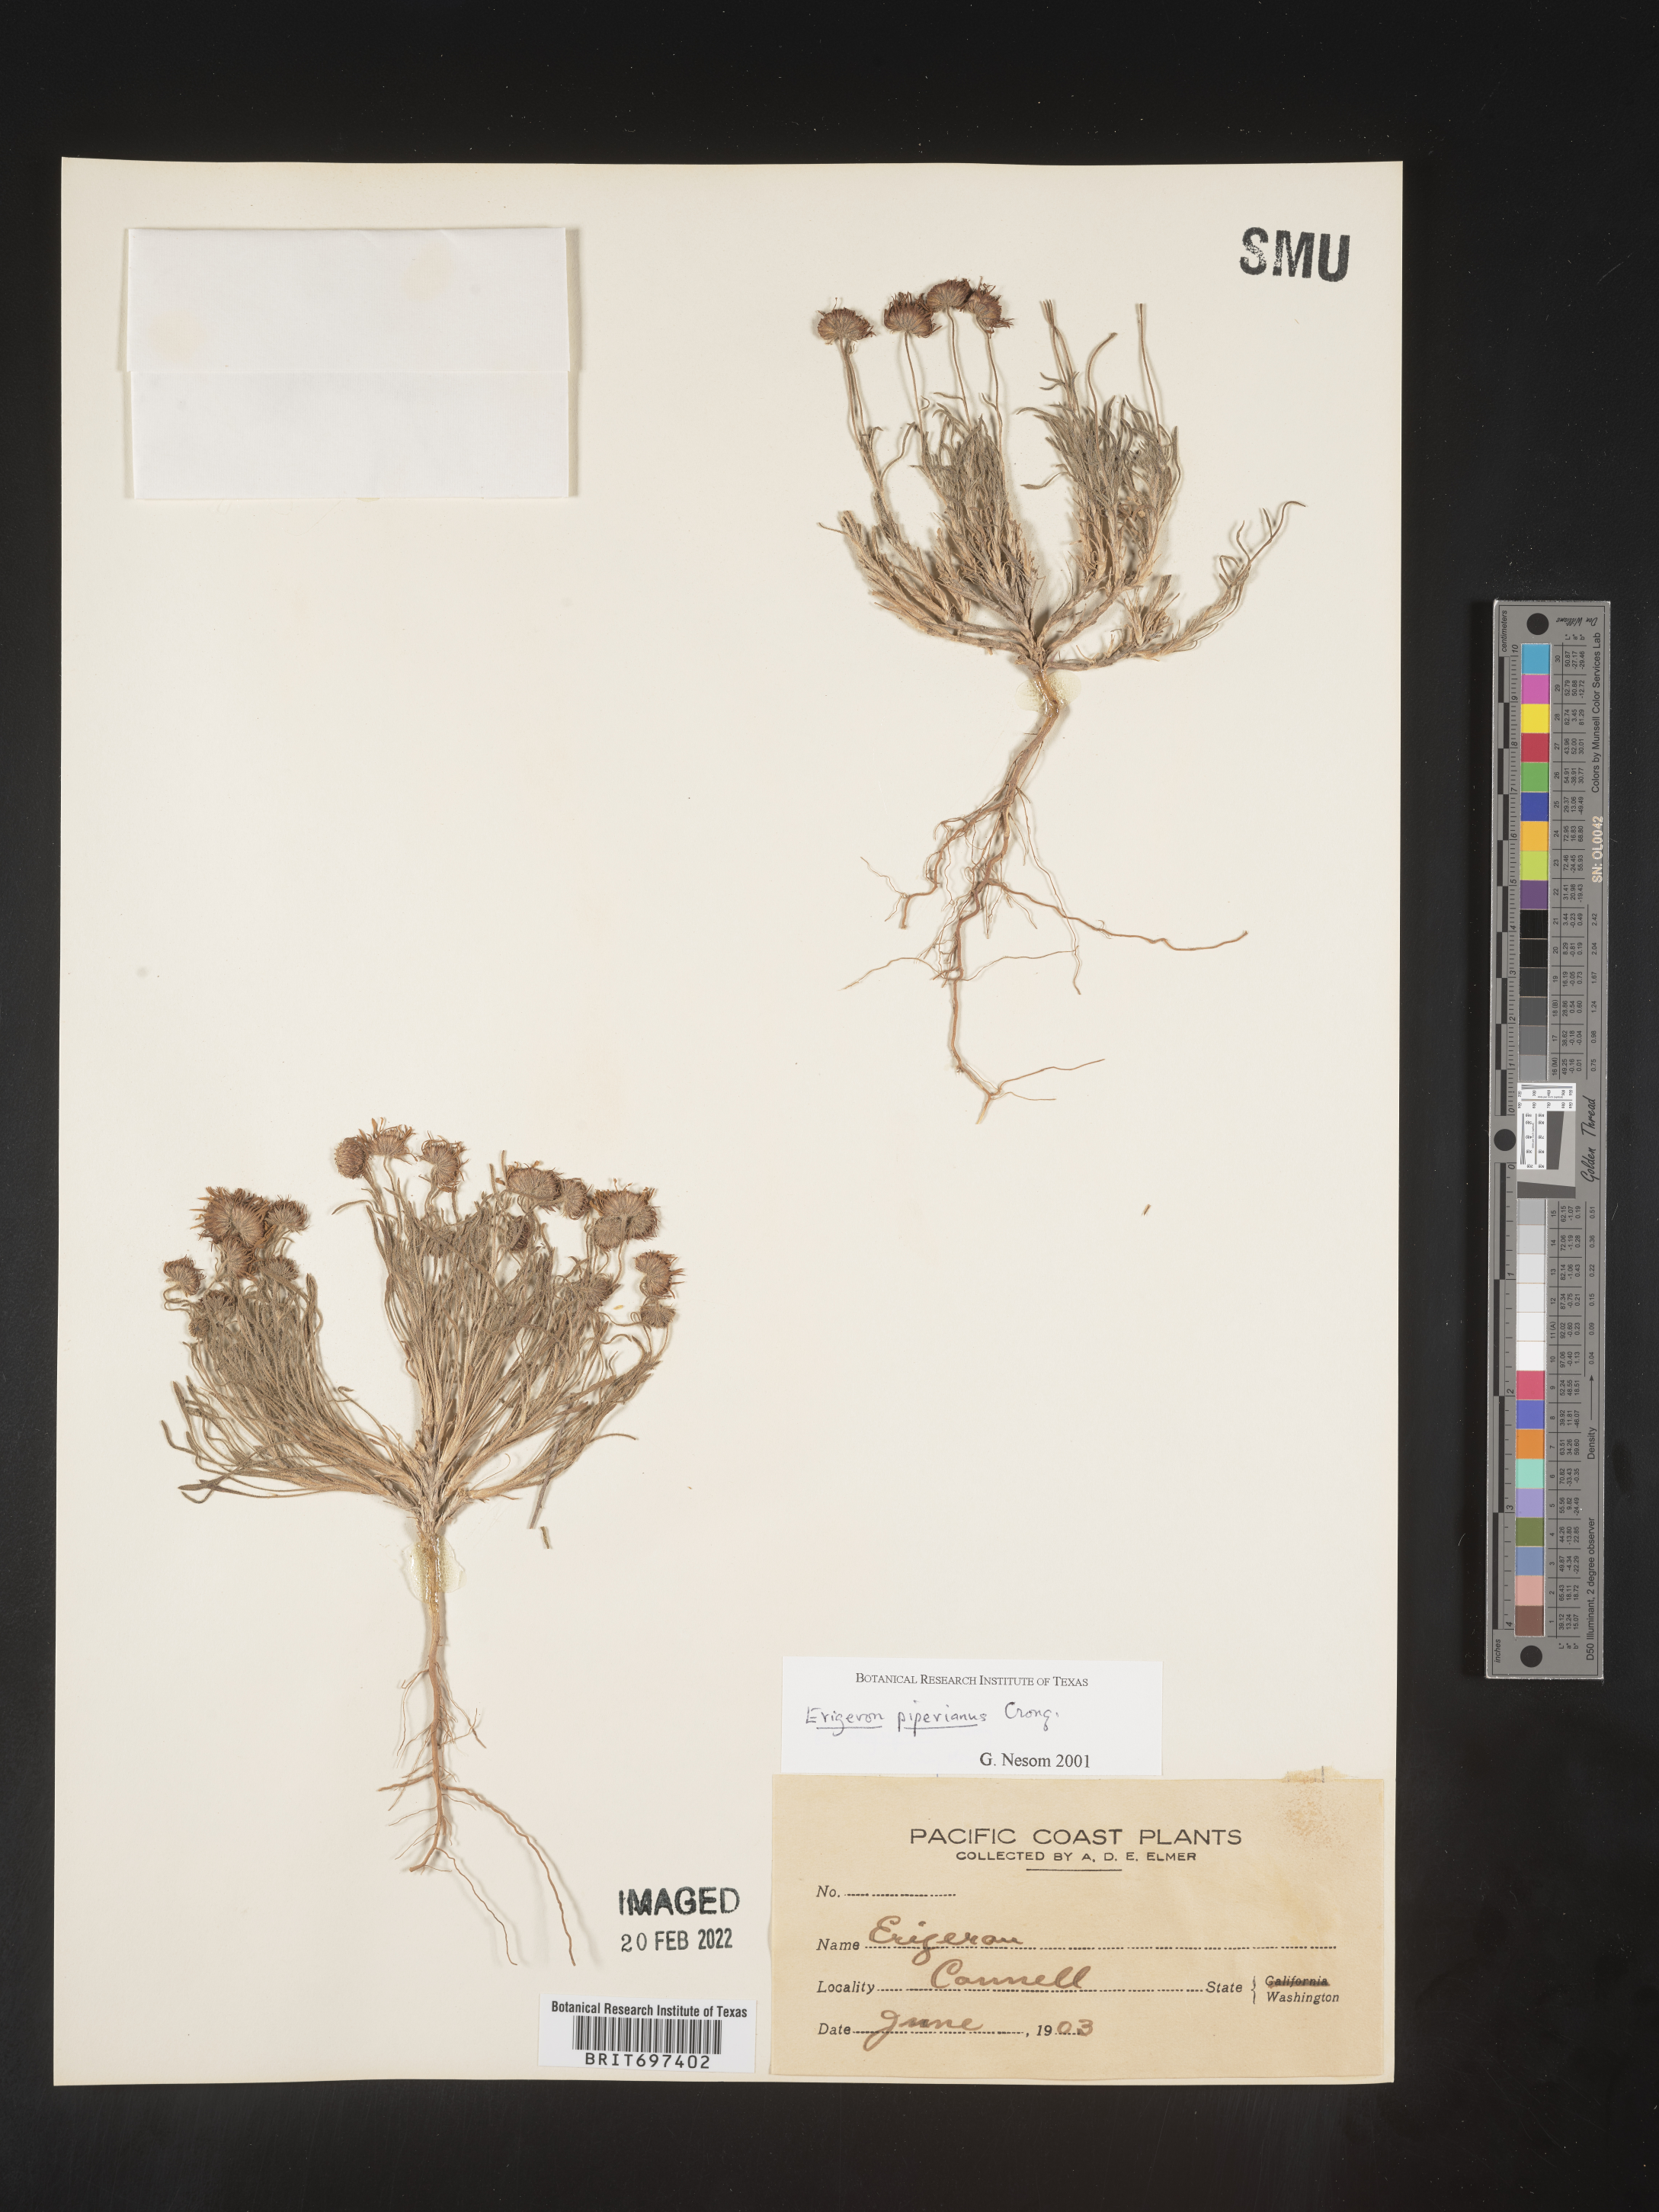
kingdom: Plantae
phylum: Tracheophyta
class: Magnoliopsida
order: Asterales
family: Asteraceae
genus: Erigeron
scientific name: Erigeron piperianus
